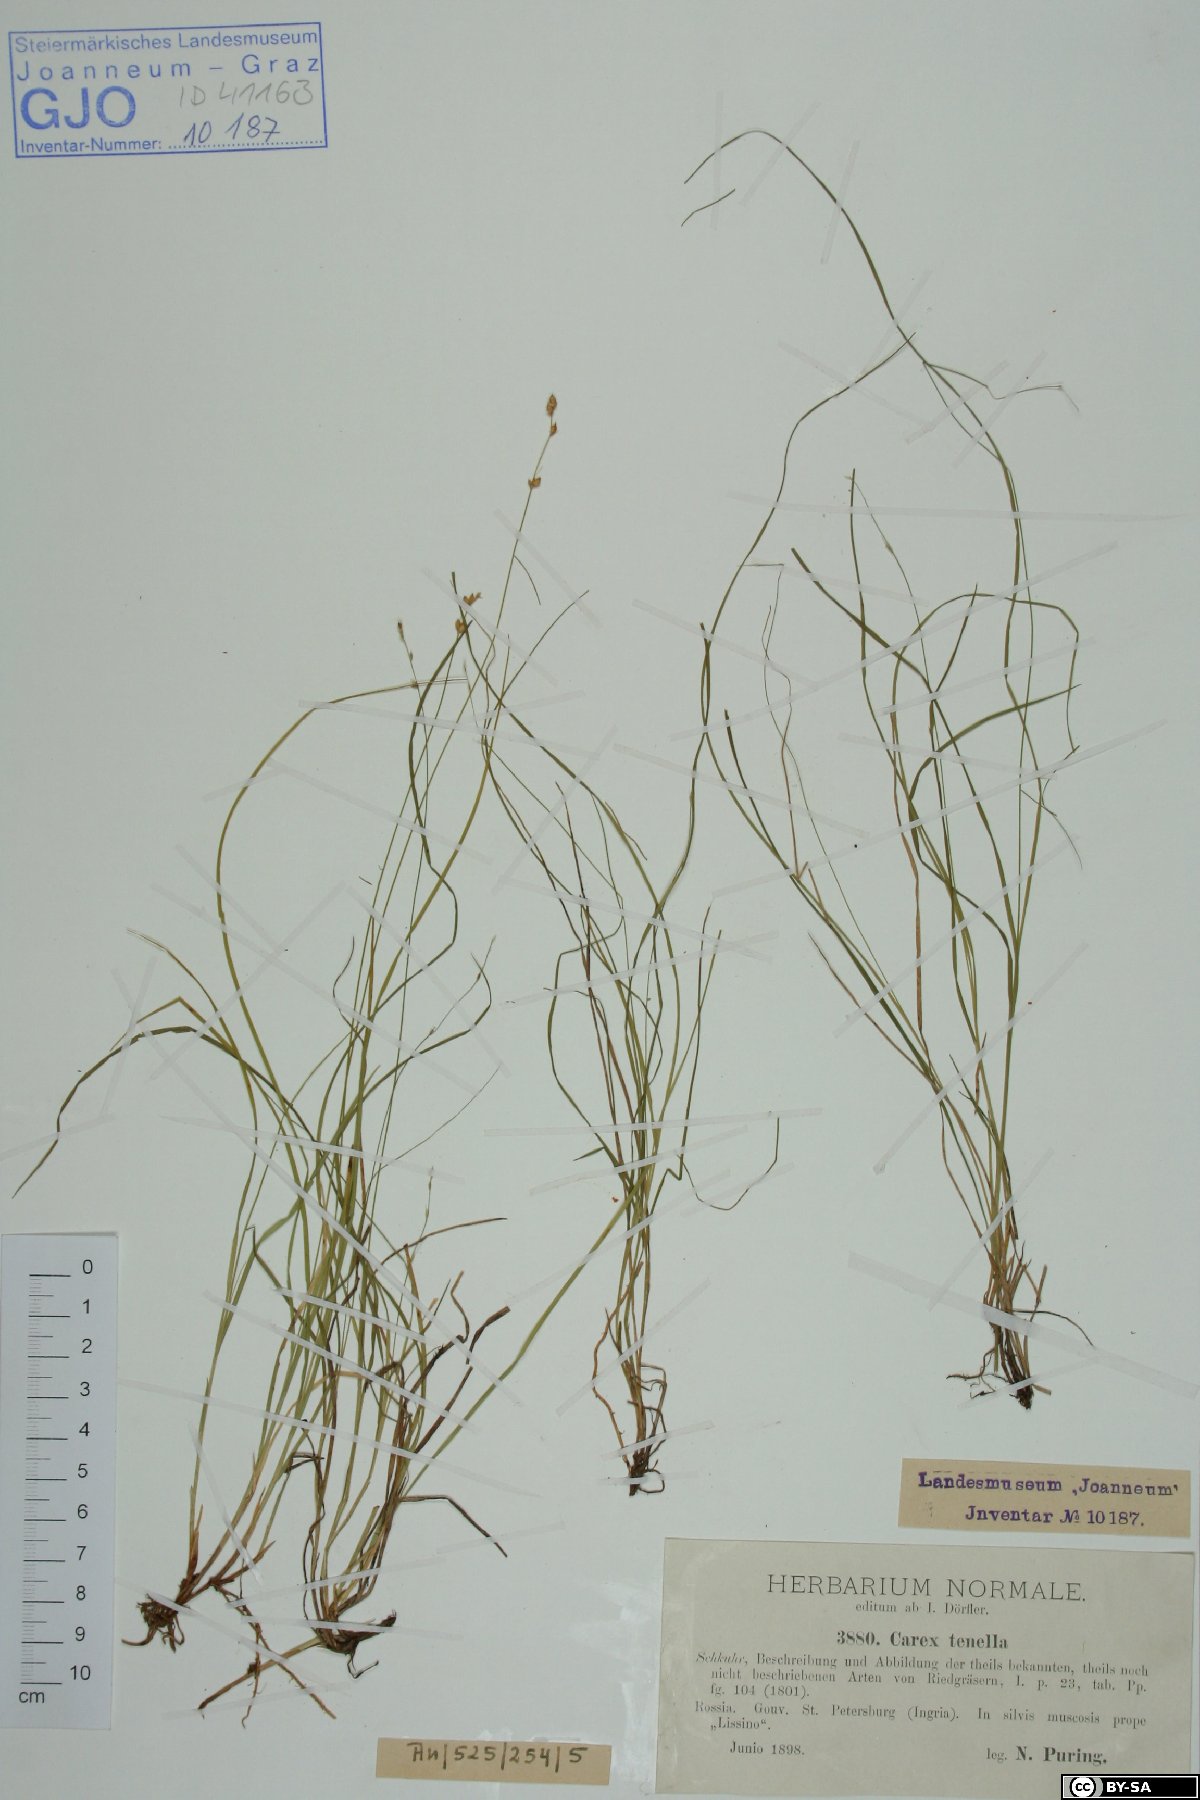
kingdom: Plantae
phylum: Tracheophyta
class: Liliopsida
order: Poales
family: Cyperaceae
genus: Carex
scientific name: Carex disperma
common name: Short-leaved sedge
